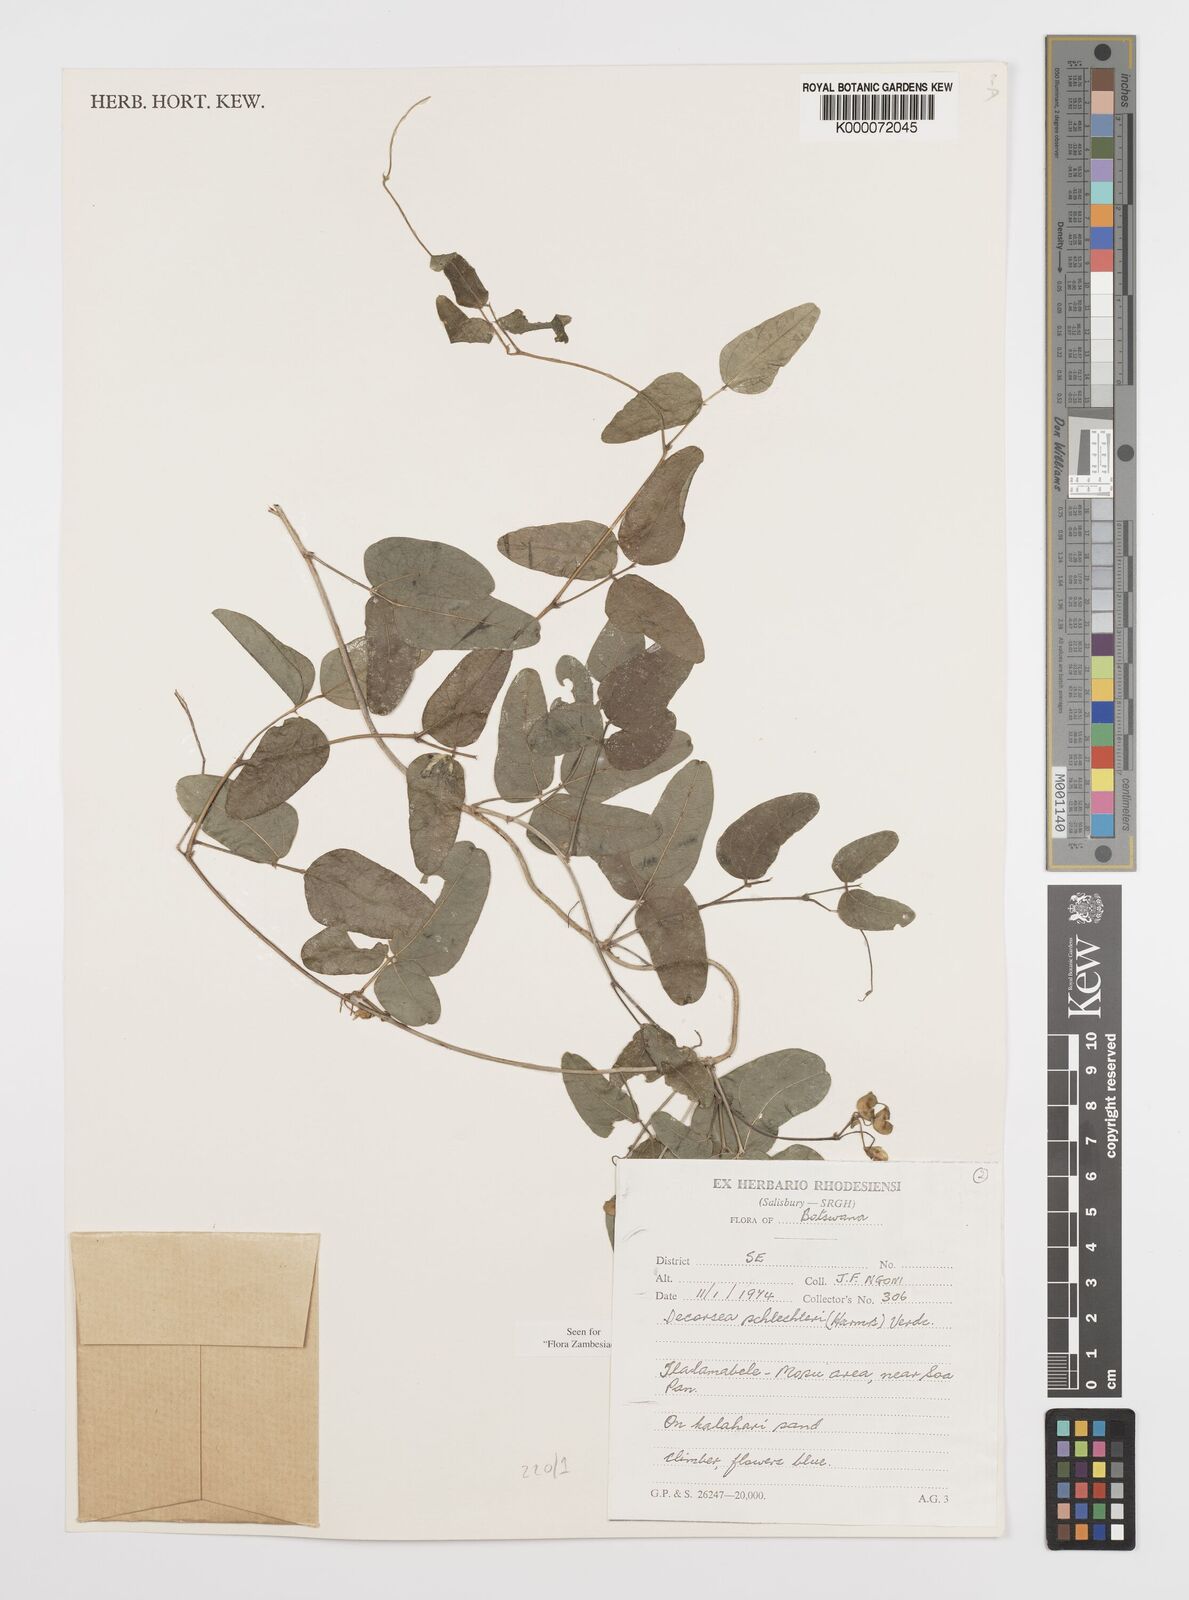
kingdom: Plantae
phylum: Tracheophyta
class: Magnoliopsida
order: Fabales
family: Fabaceae
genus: Decorsea
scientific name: Decorsea schlechteri
